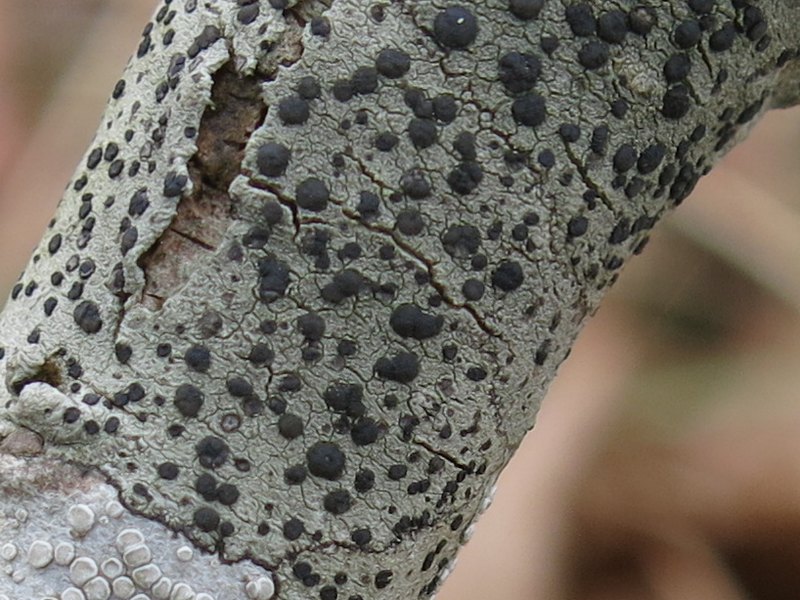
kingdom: Fungi
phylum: Ascomycota
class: Lecanoromycetes
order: Lecanorales
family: Lecanoraceae
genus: Lecidella
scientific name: Lecidella elaeochroma
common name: grågrøn skivelav
